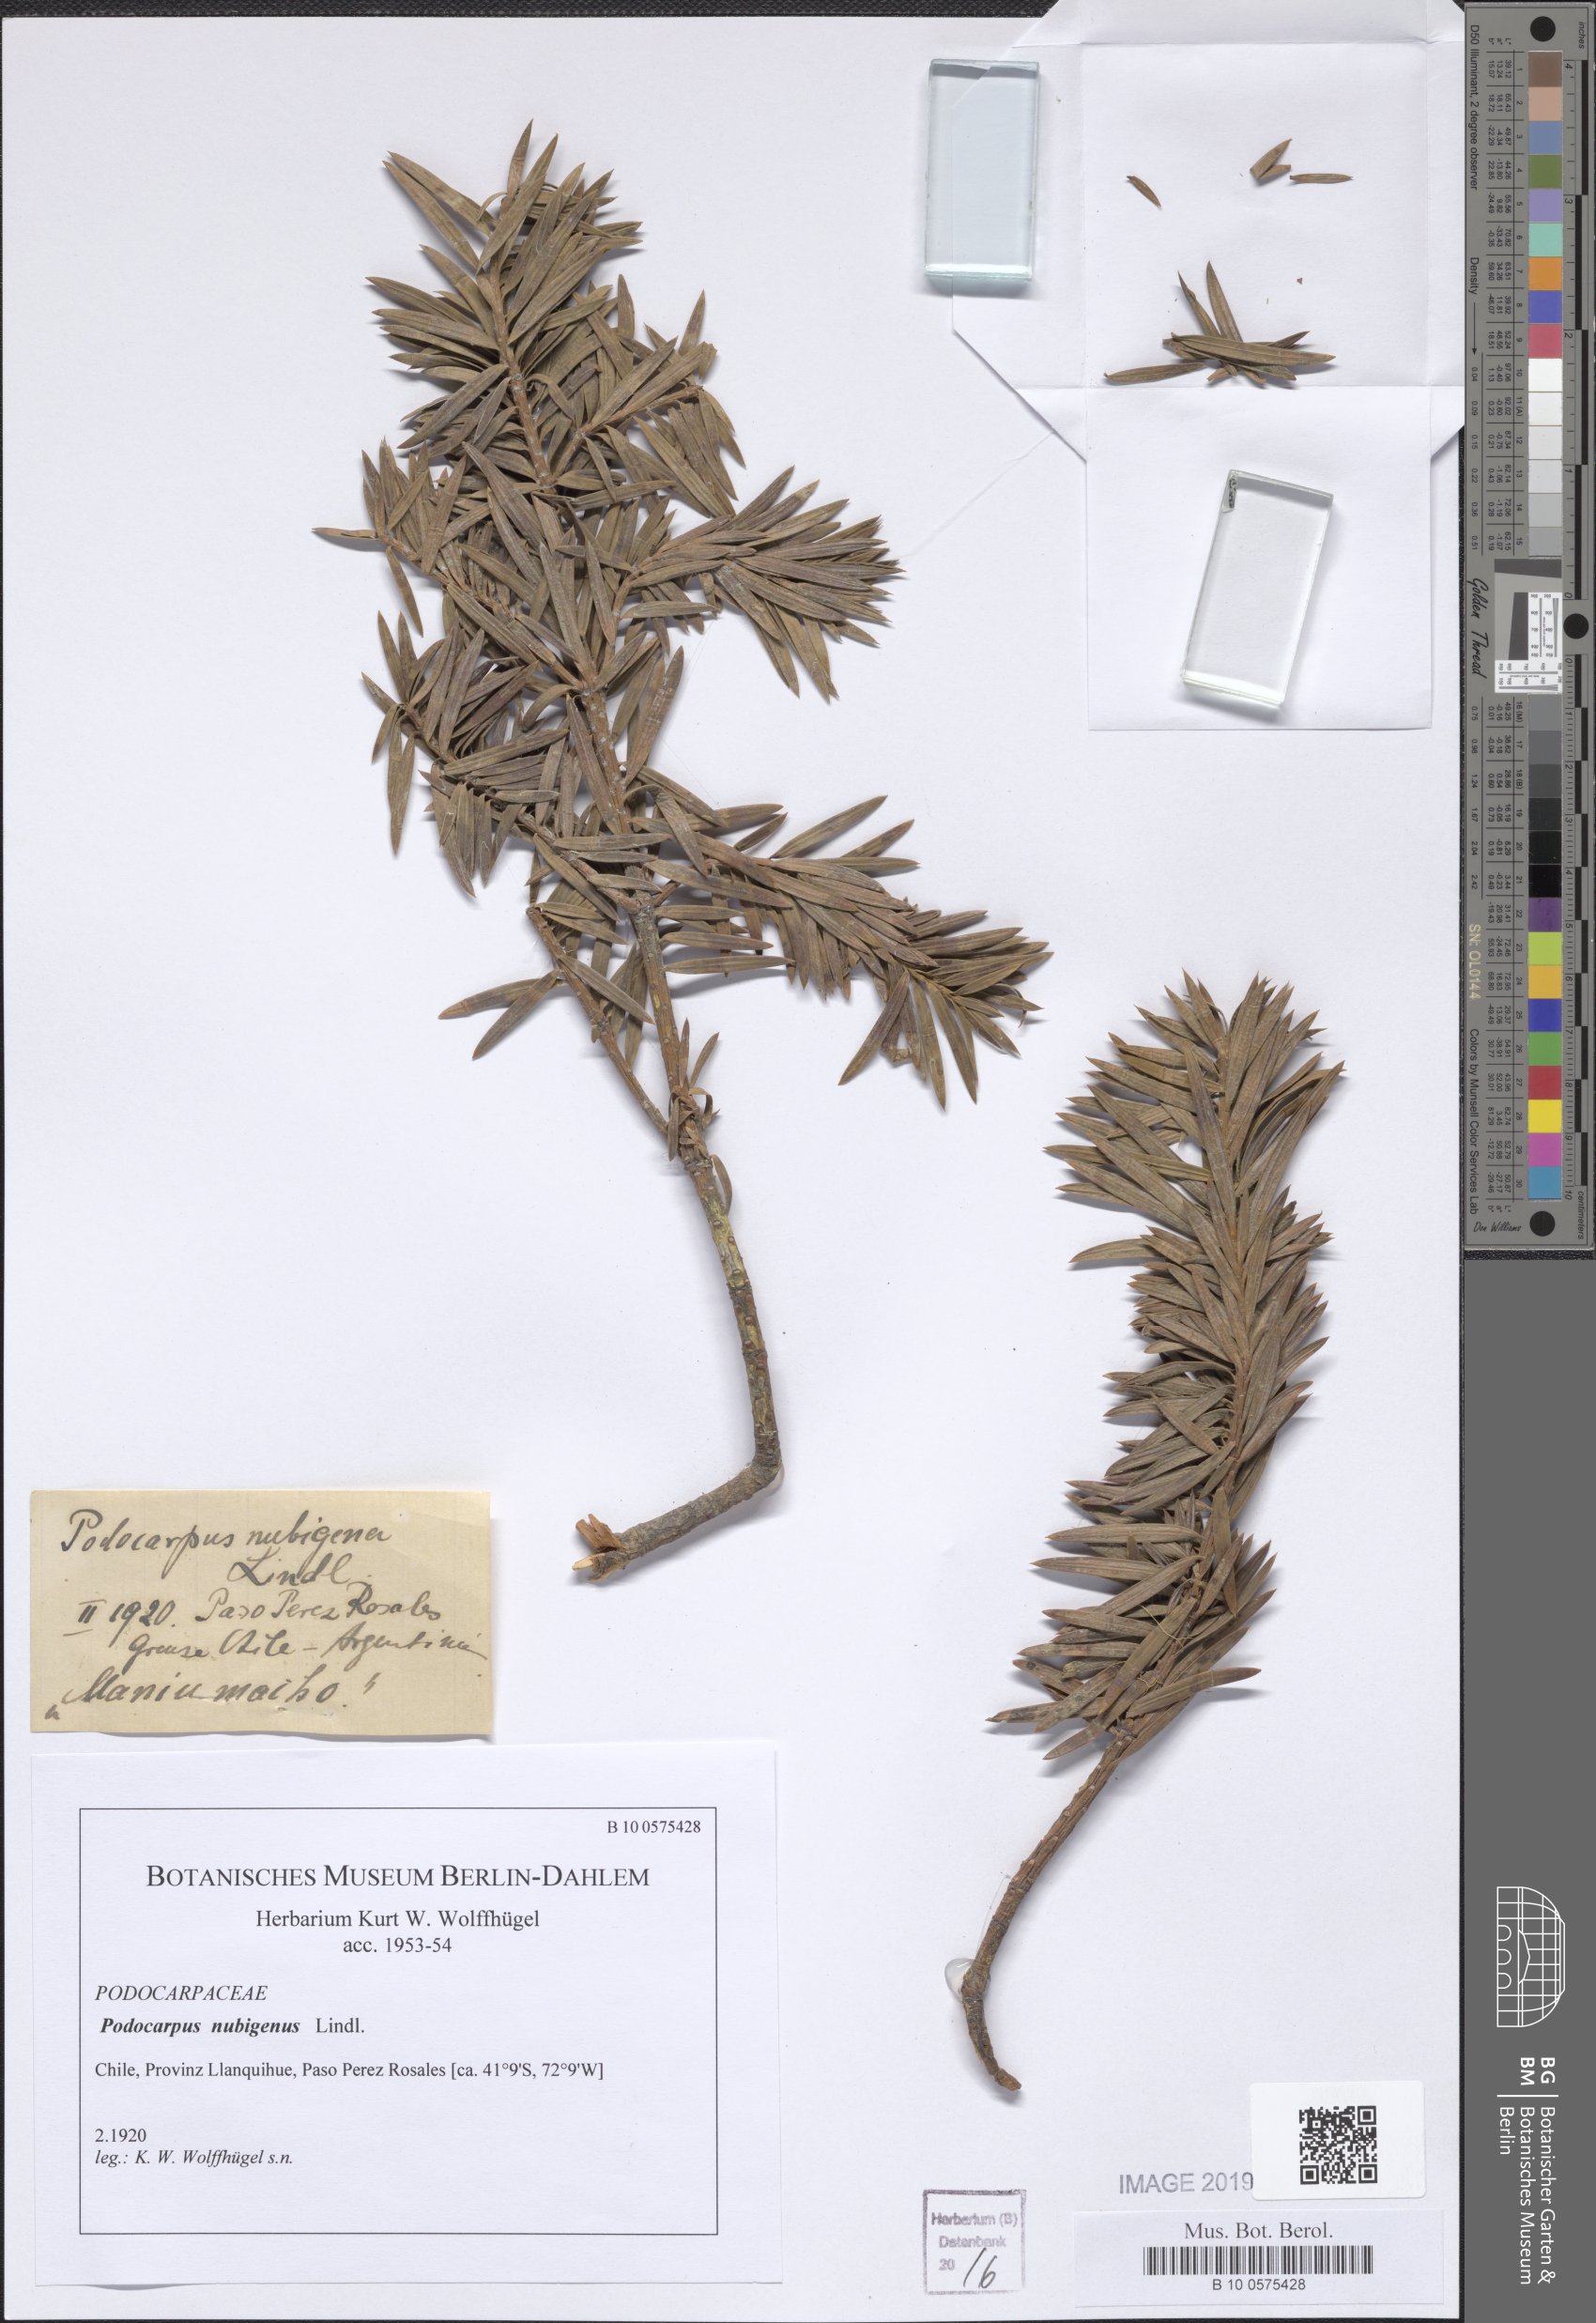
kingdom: Plantae
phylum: Tracheophyta
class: Pinopsida
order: Pinales
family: Podocarpaceae
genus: Podocarpus
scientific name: Podocarpus nubigenus
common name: Cloud podocarp
